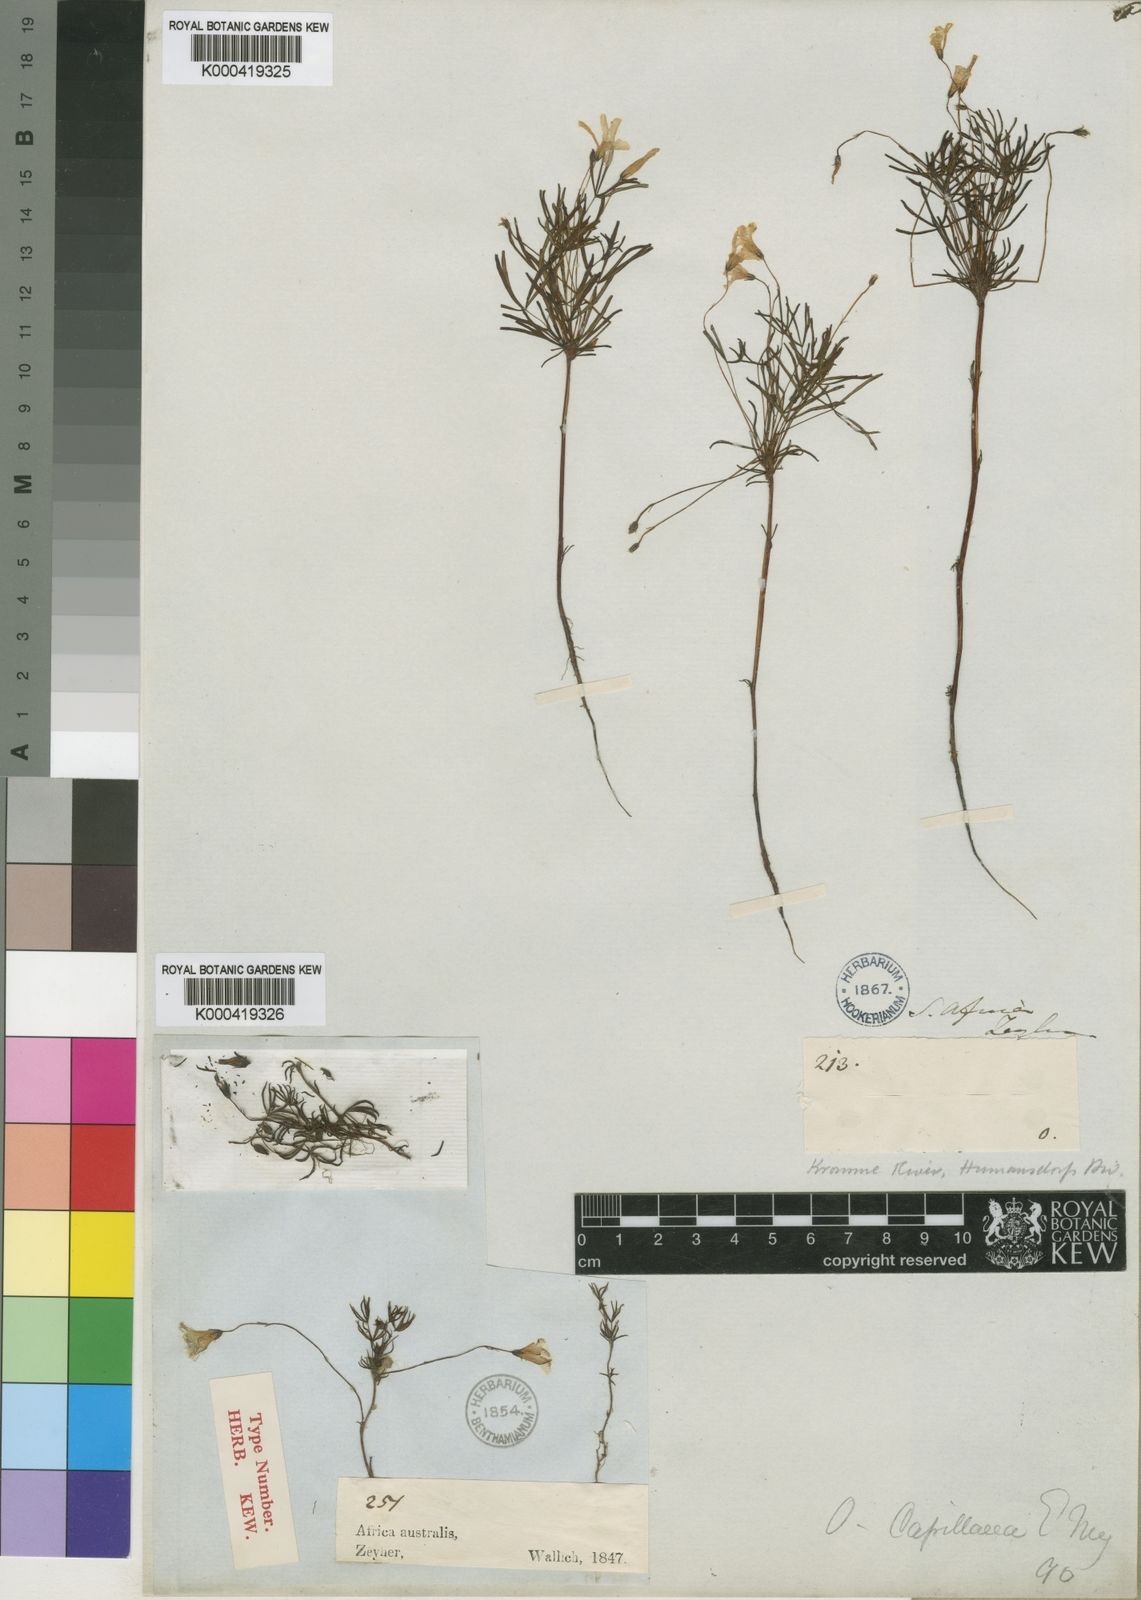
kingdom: Plantae
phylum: Tracheophyta
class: Magnoliopsida
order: Oxalidales
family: Oxalidaceae
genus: Oxalis
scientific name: Oxalis capillacea
